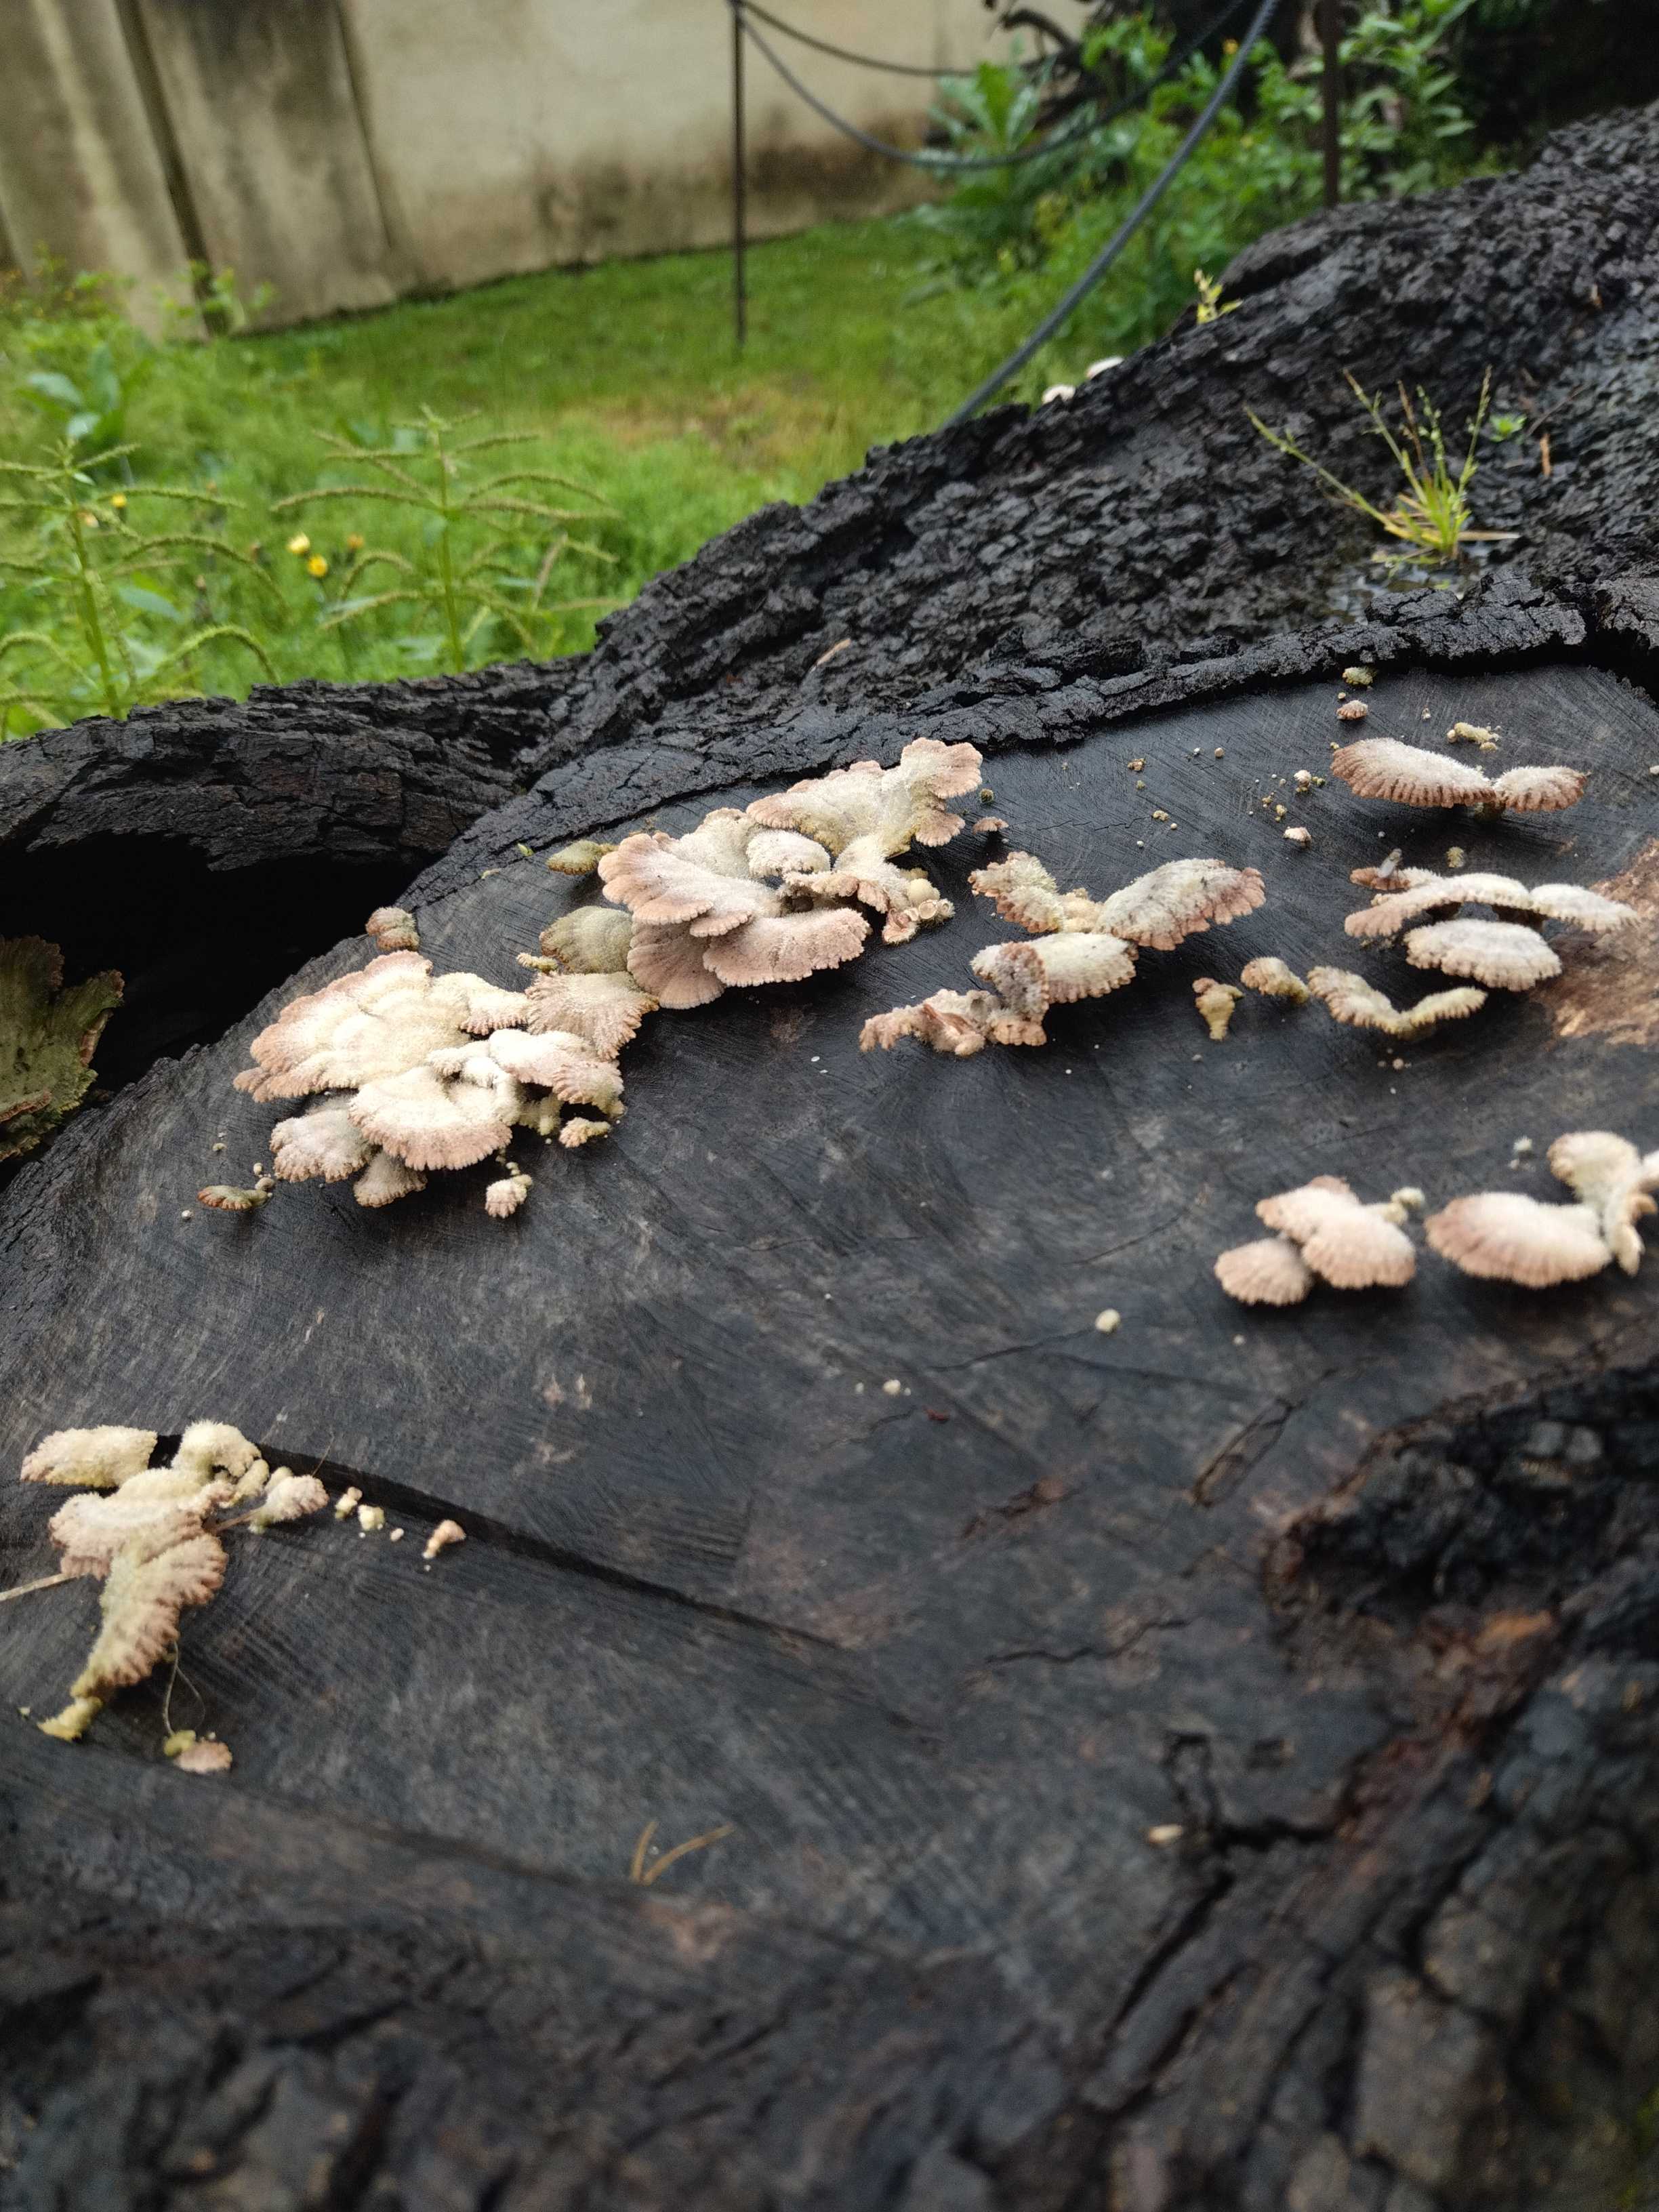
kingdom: Fungi
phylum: Basidiomycota
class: Agaricomycetes
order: Agaricales
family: Schizophyllaceae
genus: Schizophyllum
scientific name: Schizophyllum commune
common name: kløvblad
